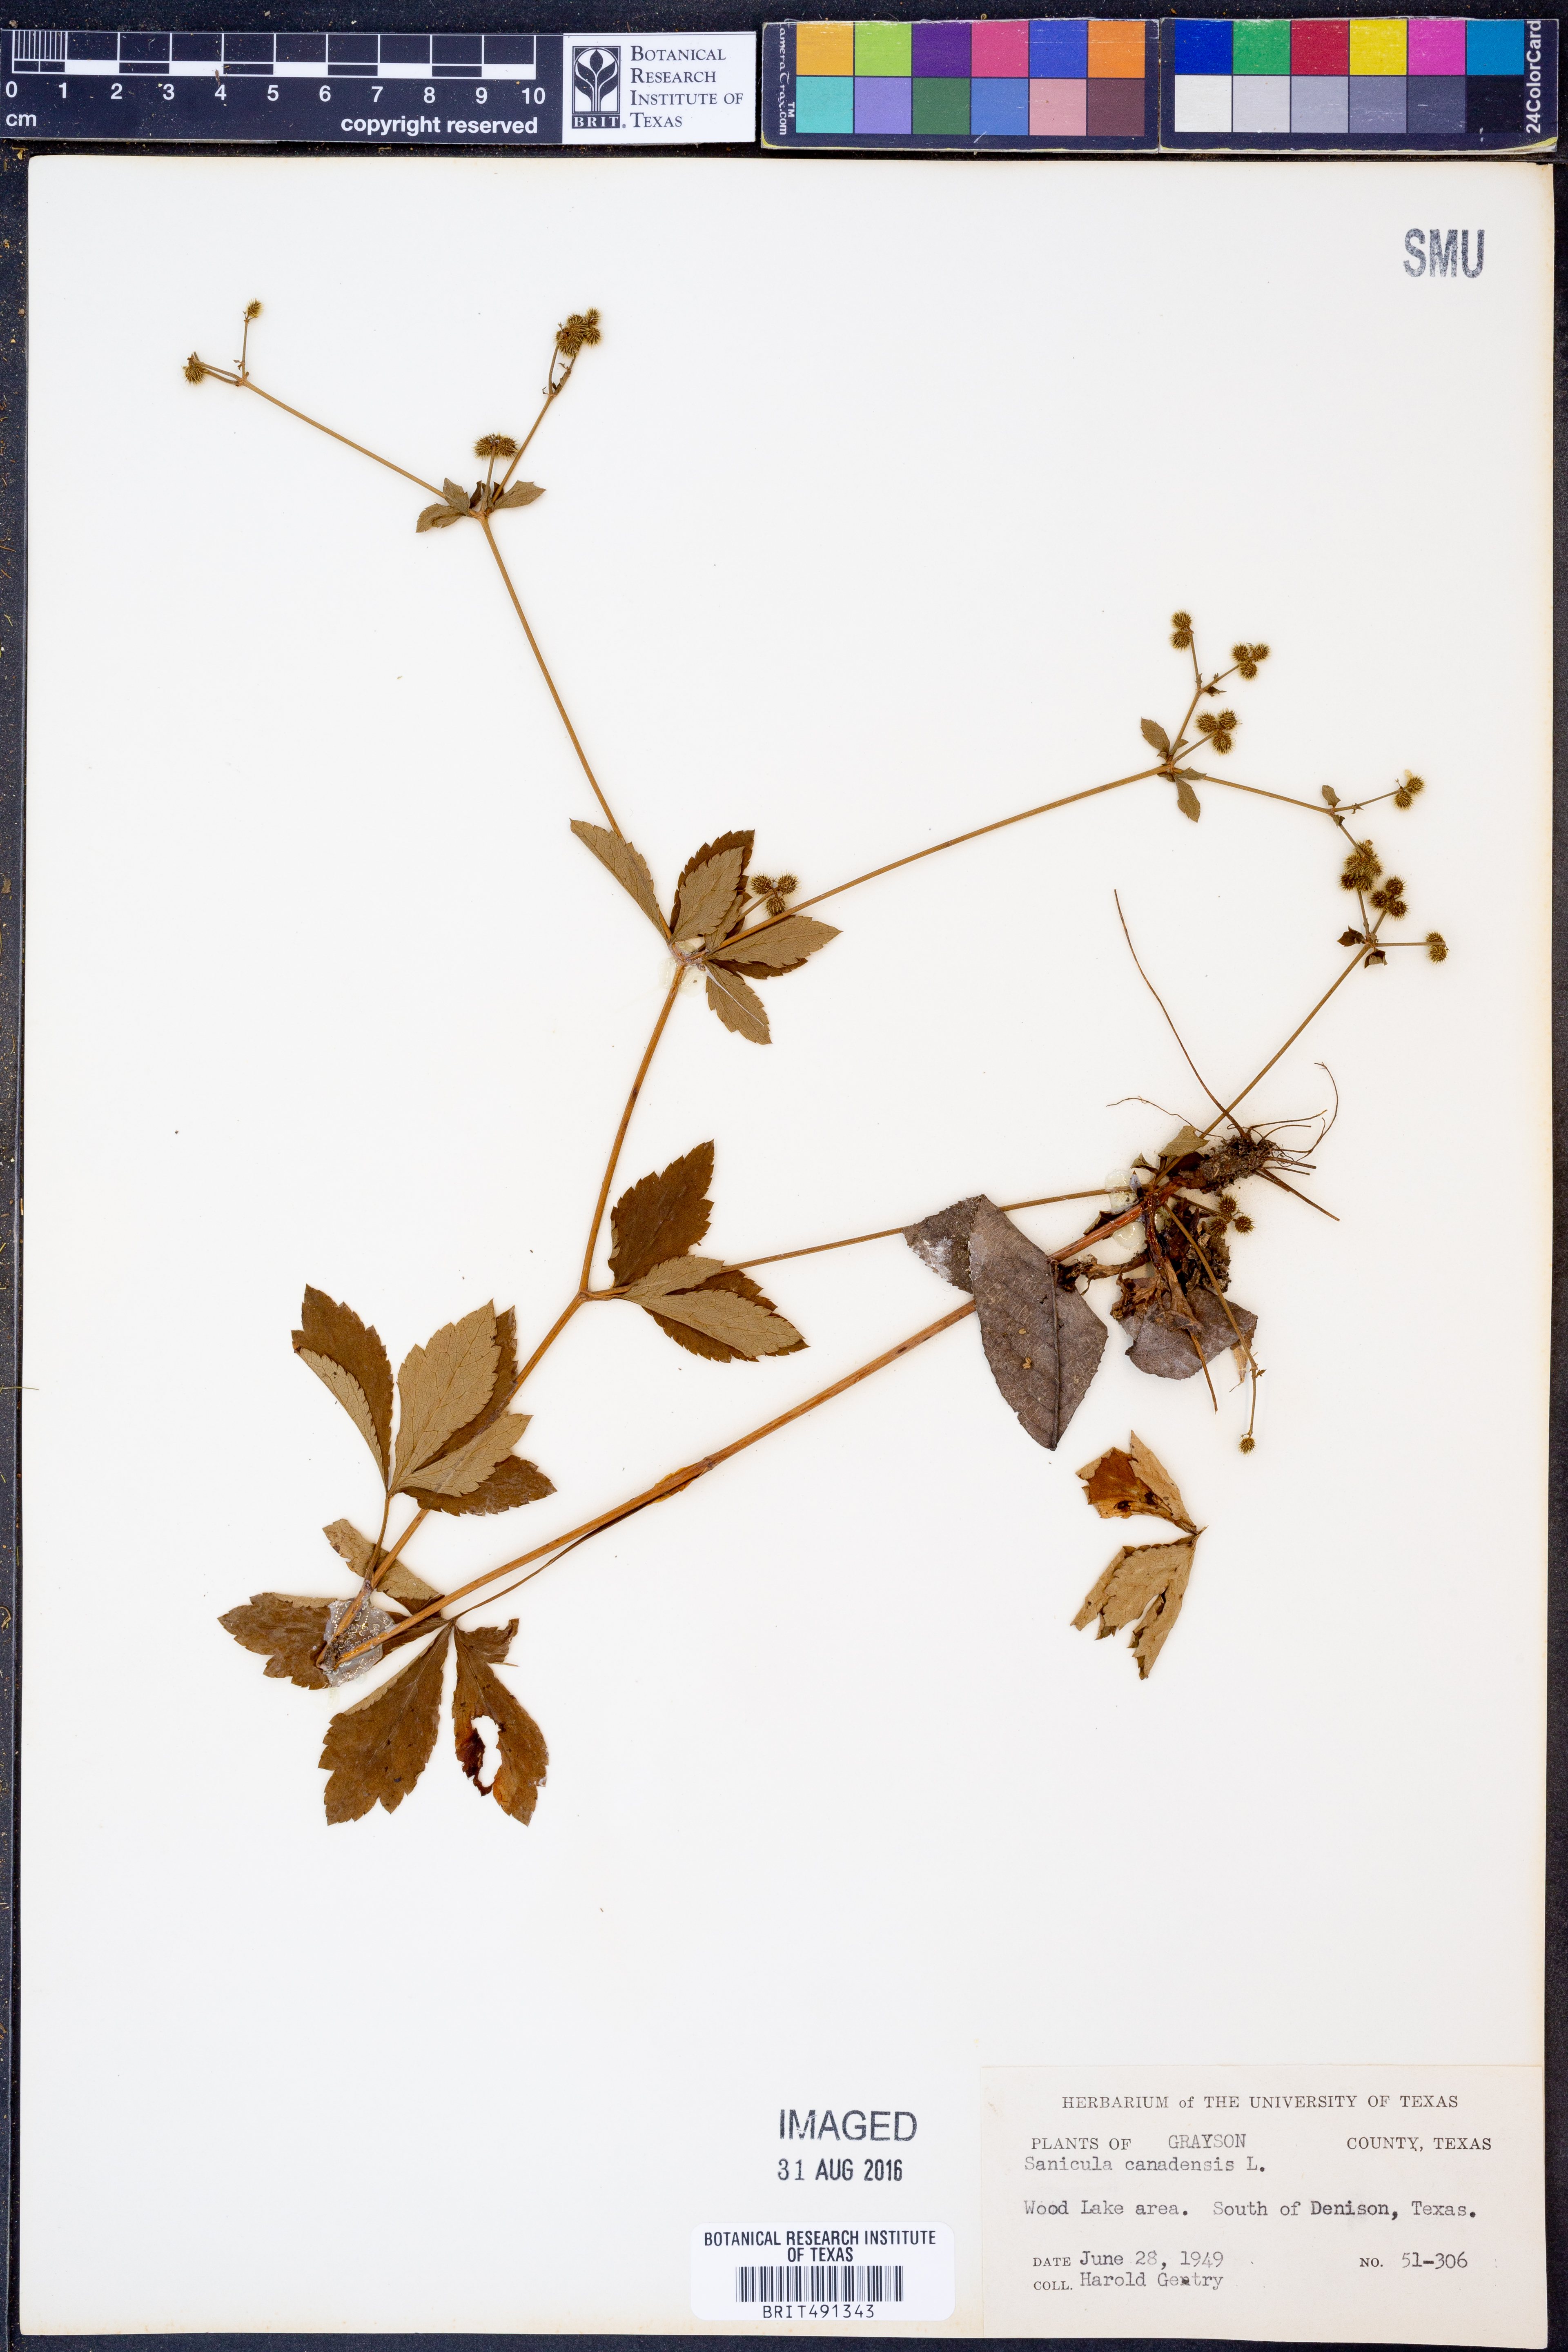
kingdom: Plantae
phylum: Tracheophyta
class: Magnoliopsida
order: Apiales
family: Apiaceae
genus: Sanicula
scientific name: Sanicula canadensis
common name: Canada sanicle
